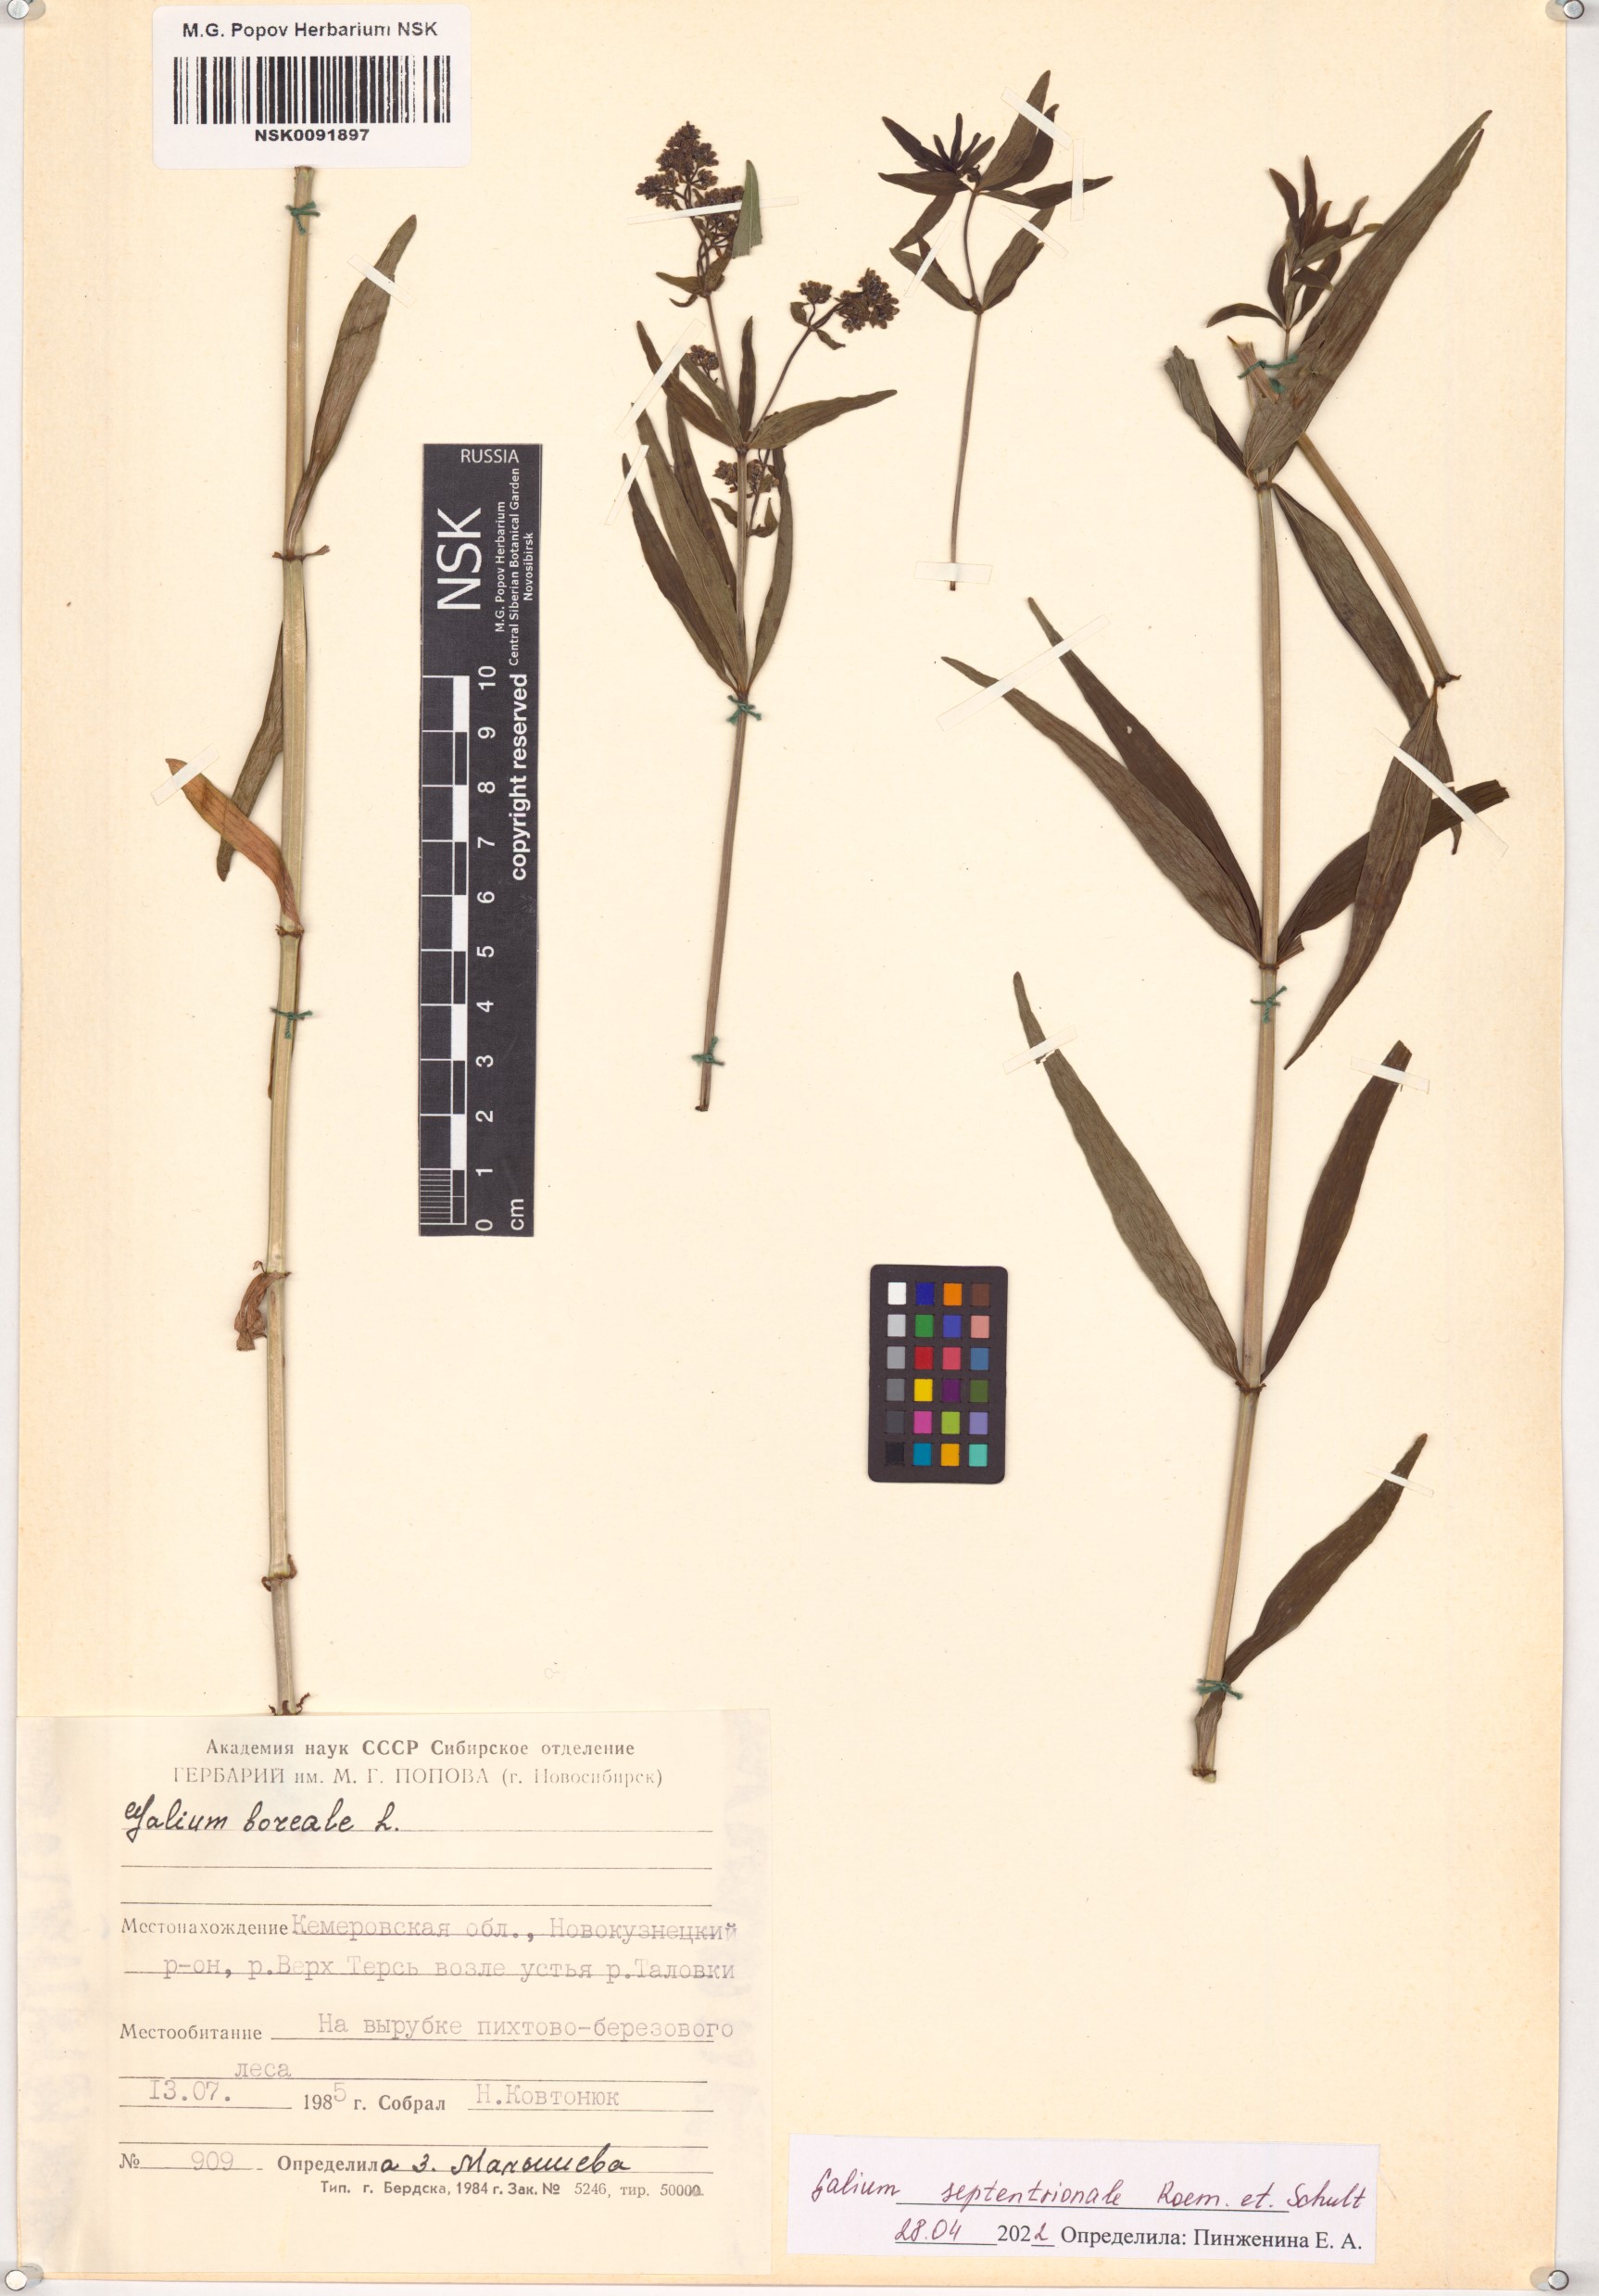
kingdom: Plantae
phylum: Tracheophyta
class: Magnoliopsida
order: Gentianales
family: Rubiaceae
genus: Galium
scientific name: Galium boreale
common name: Northern bedstraw
